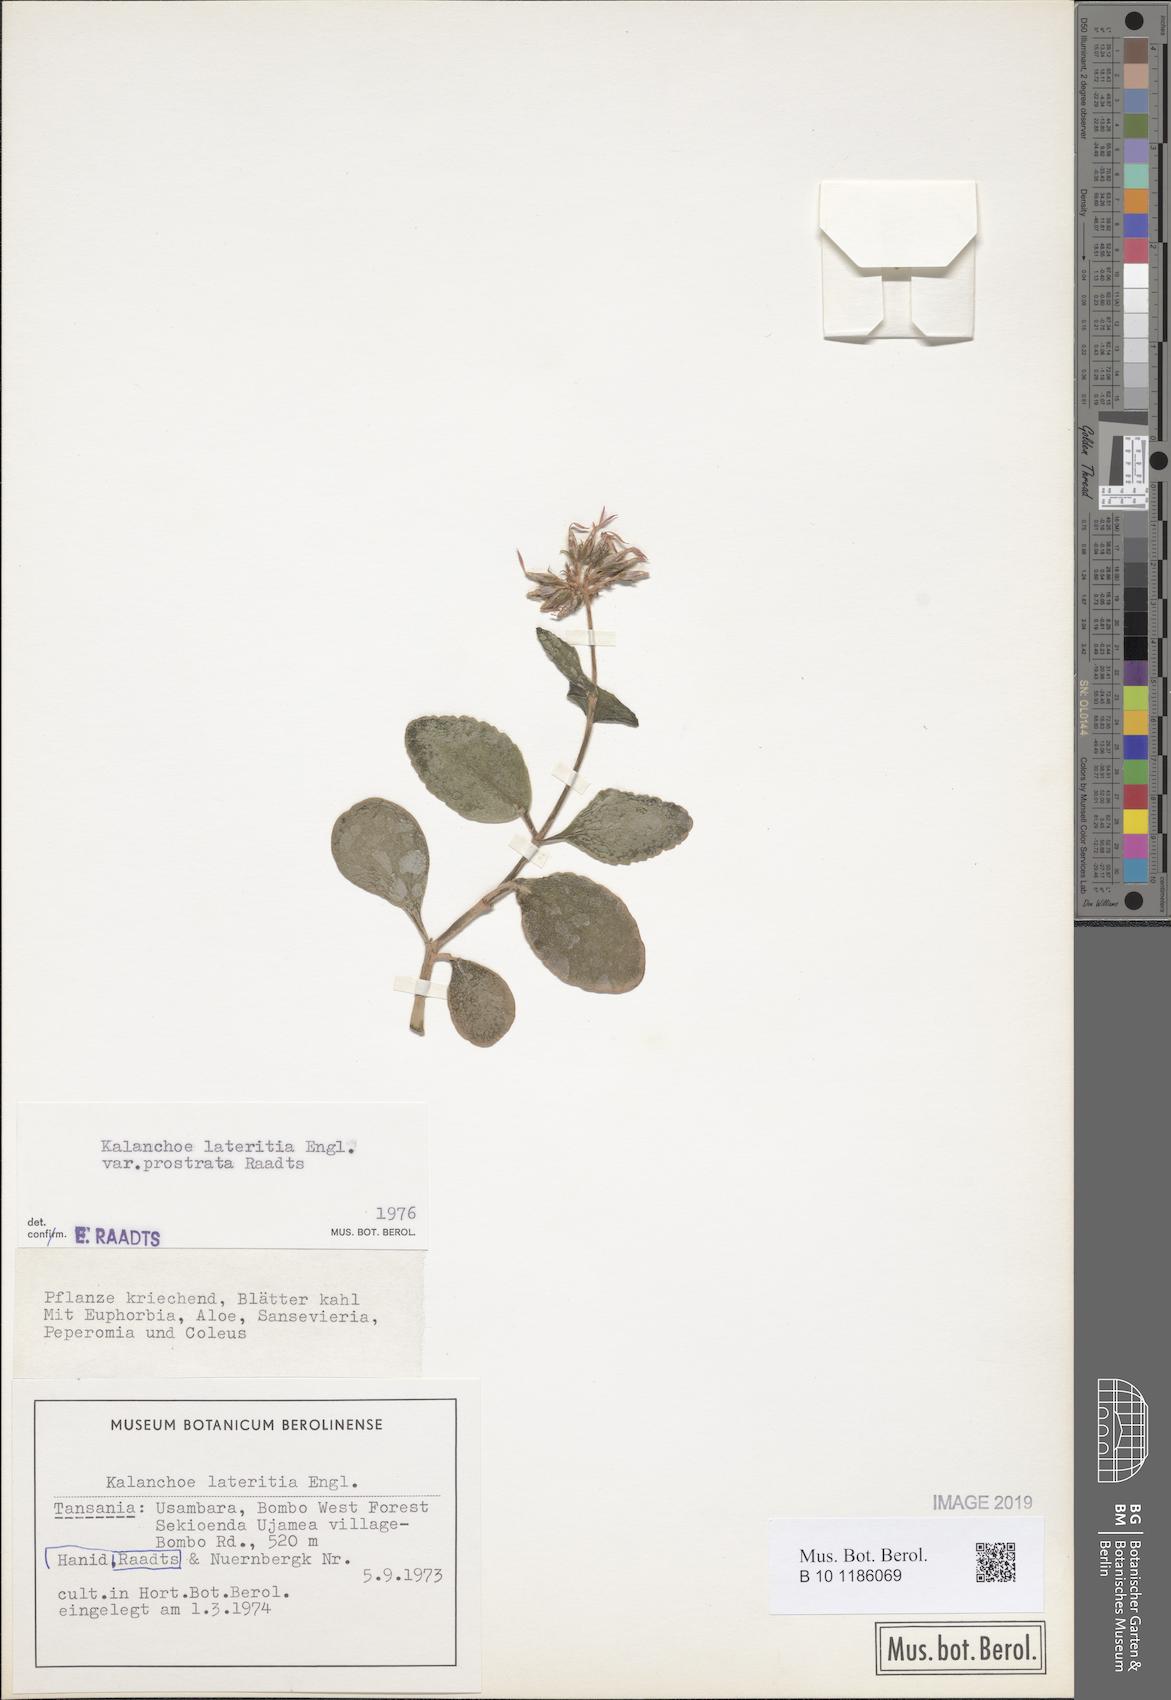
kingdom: Plantae
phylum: Tracheophyta
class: Magnoliopsida
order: Saxifragales
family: Crassulaceae
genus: Kalanchoe
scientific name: Kalanchoe lateritia
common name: Kalanchoe
